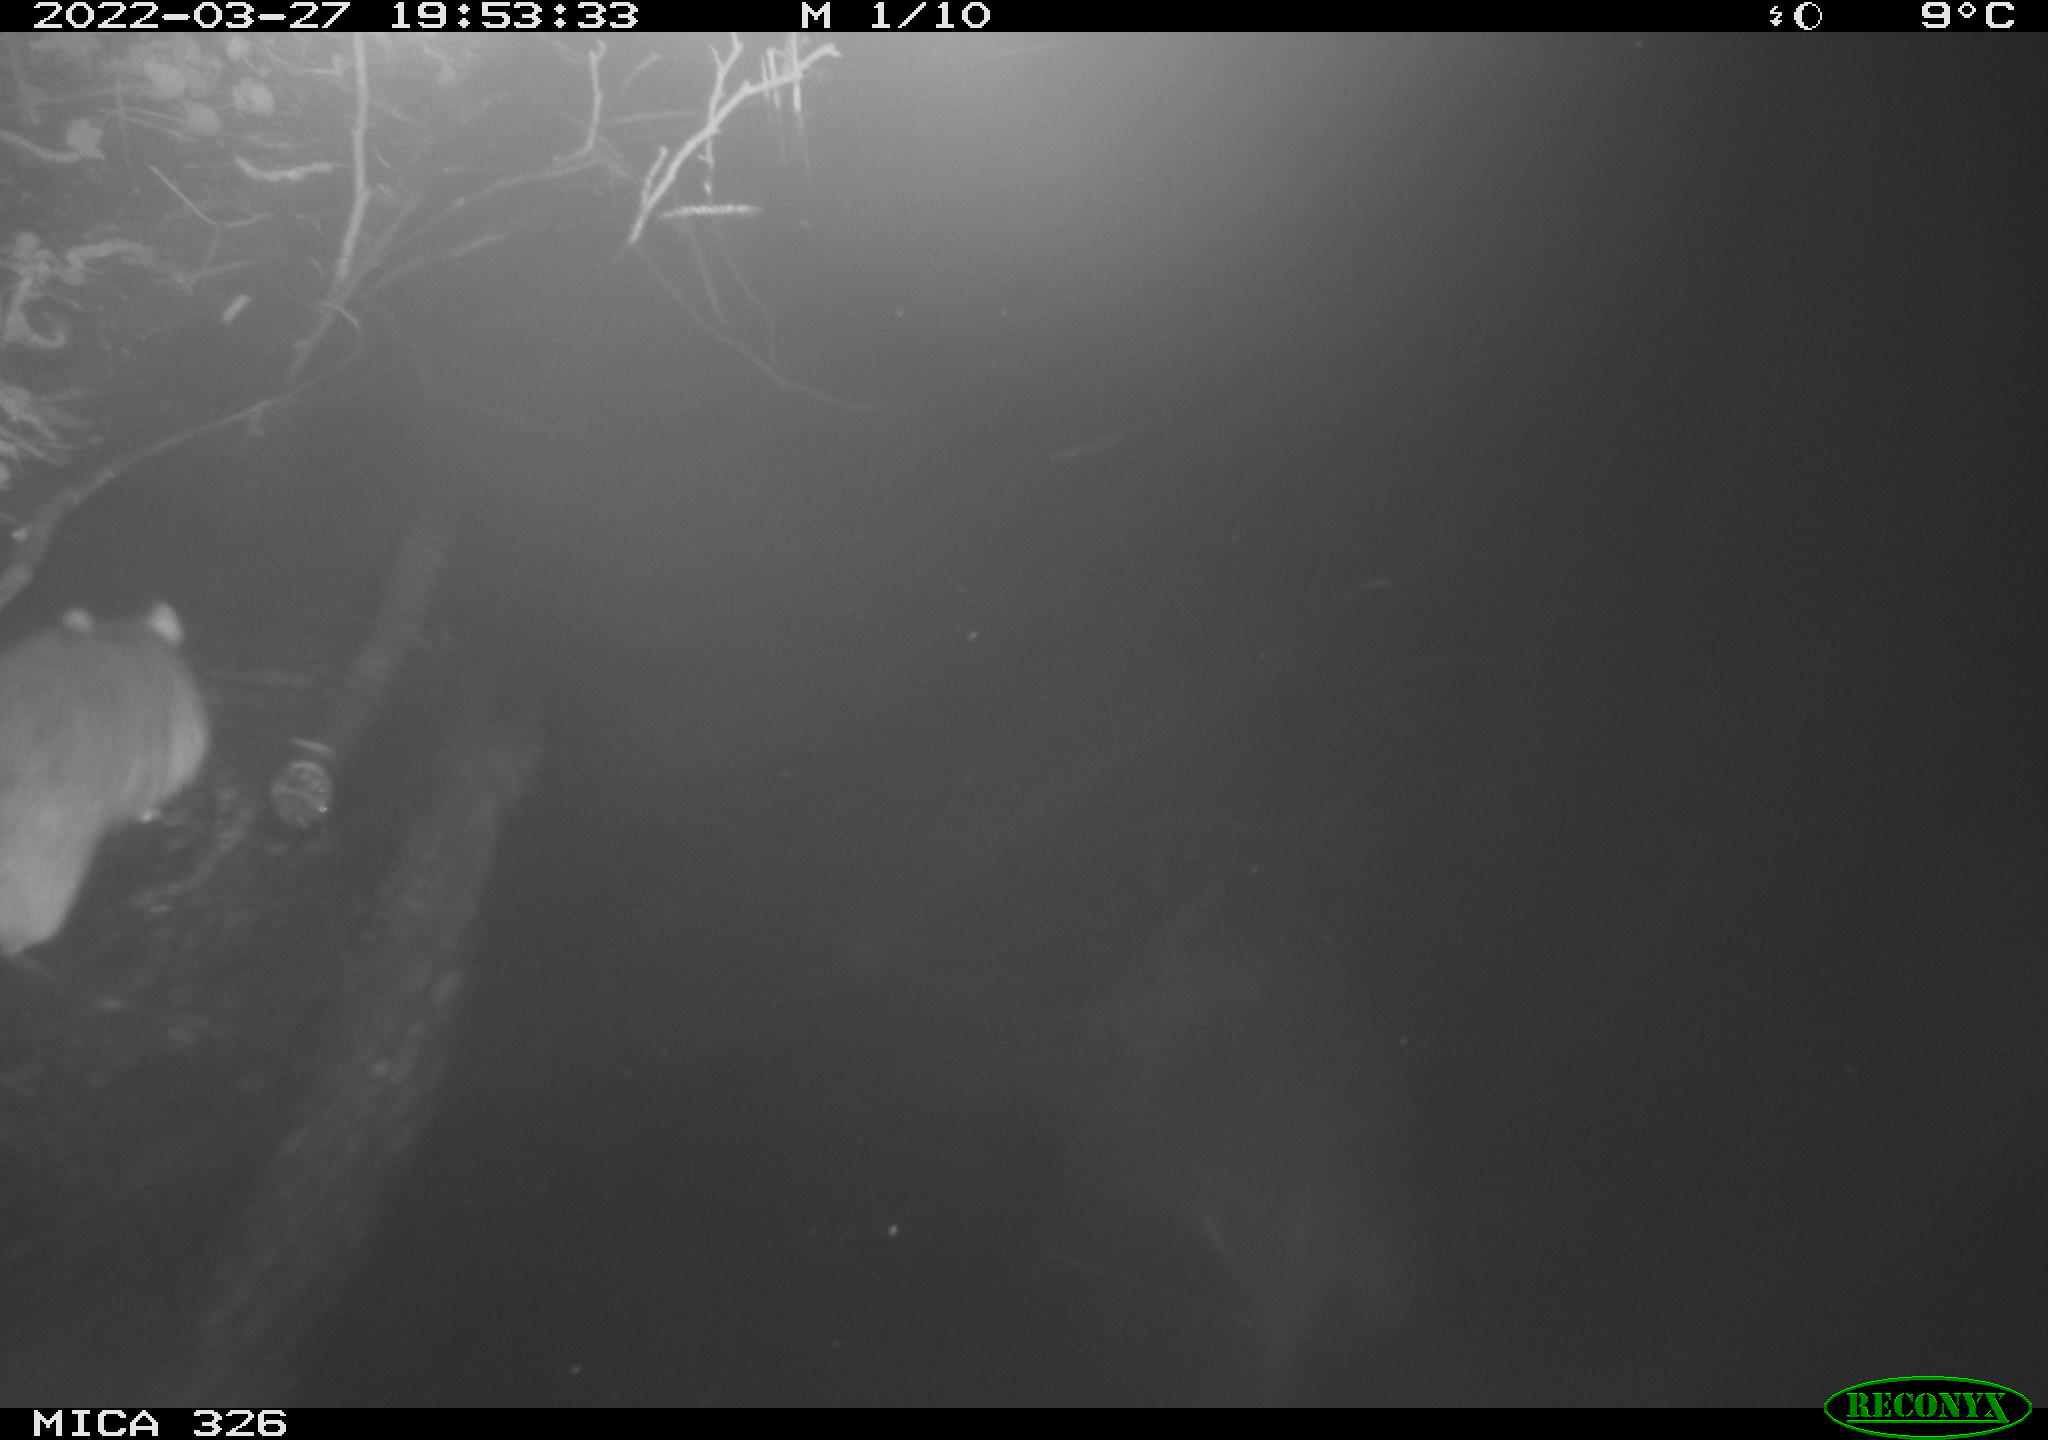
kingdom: Animalia
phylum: Chordata
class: Mammalia
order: Rodentia
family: Muridae
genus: Rattus
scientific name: Rattus norvegicus
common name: Brown rat
